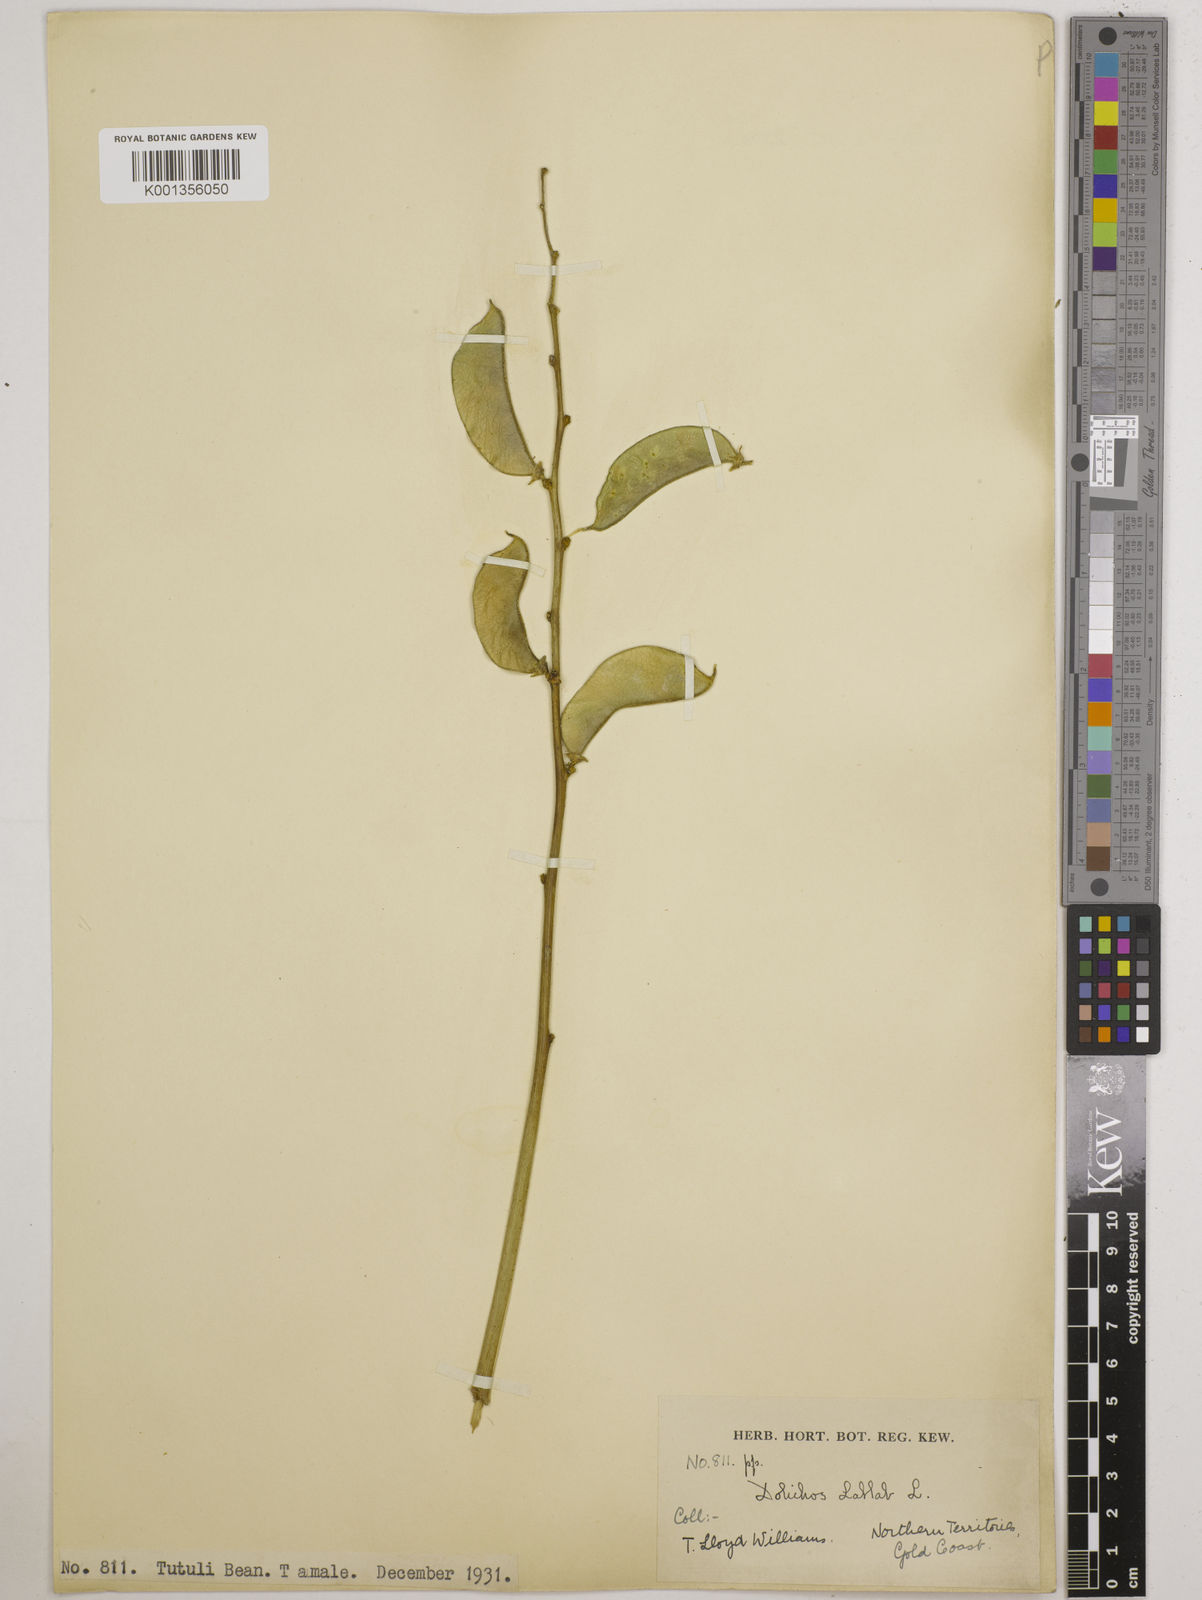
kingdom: Plantae
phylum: Tracheophyta
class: Magnoliopsida
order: Fabales
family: Fabaceae
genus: Lablab
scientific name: Lablab purpureus
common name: Lablab-bean
